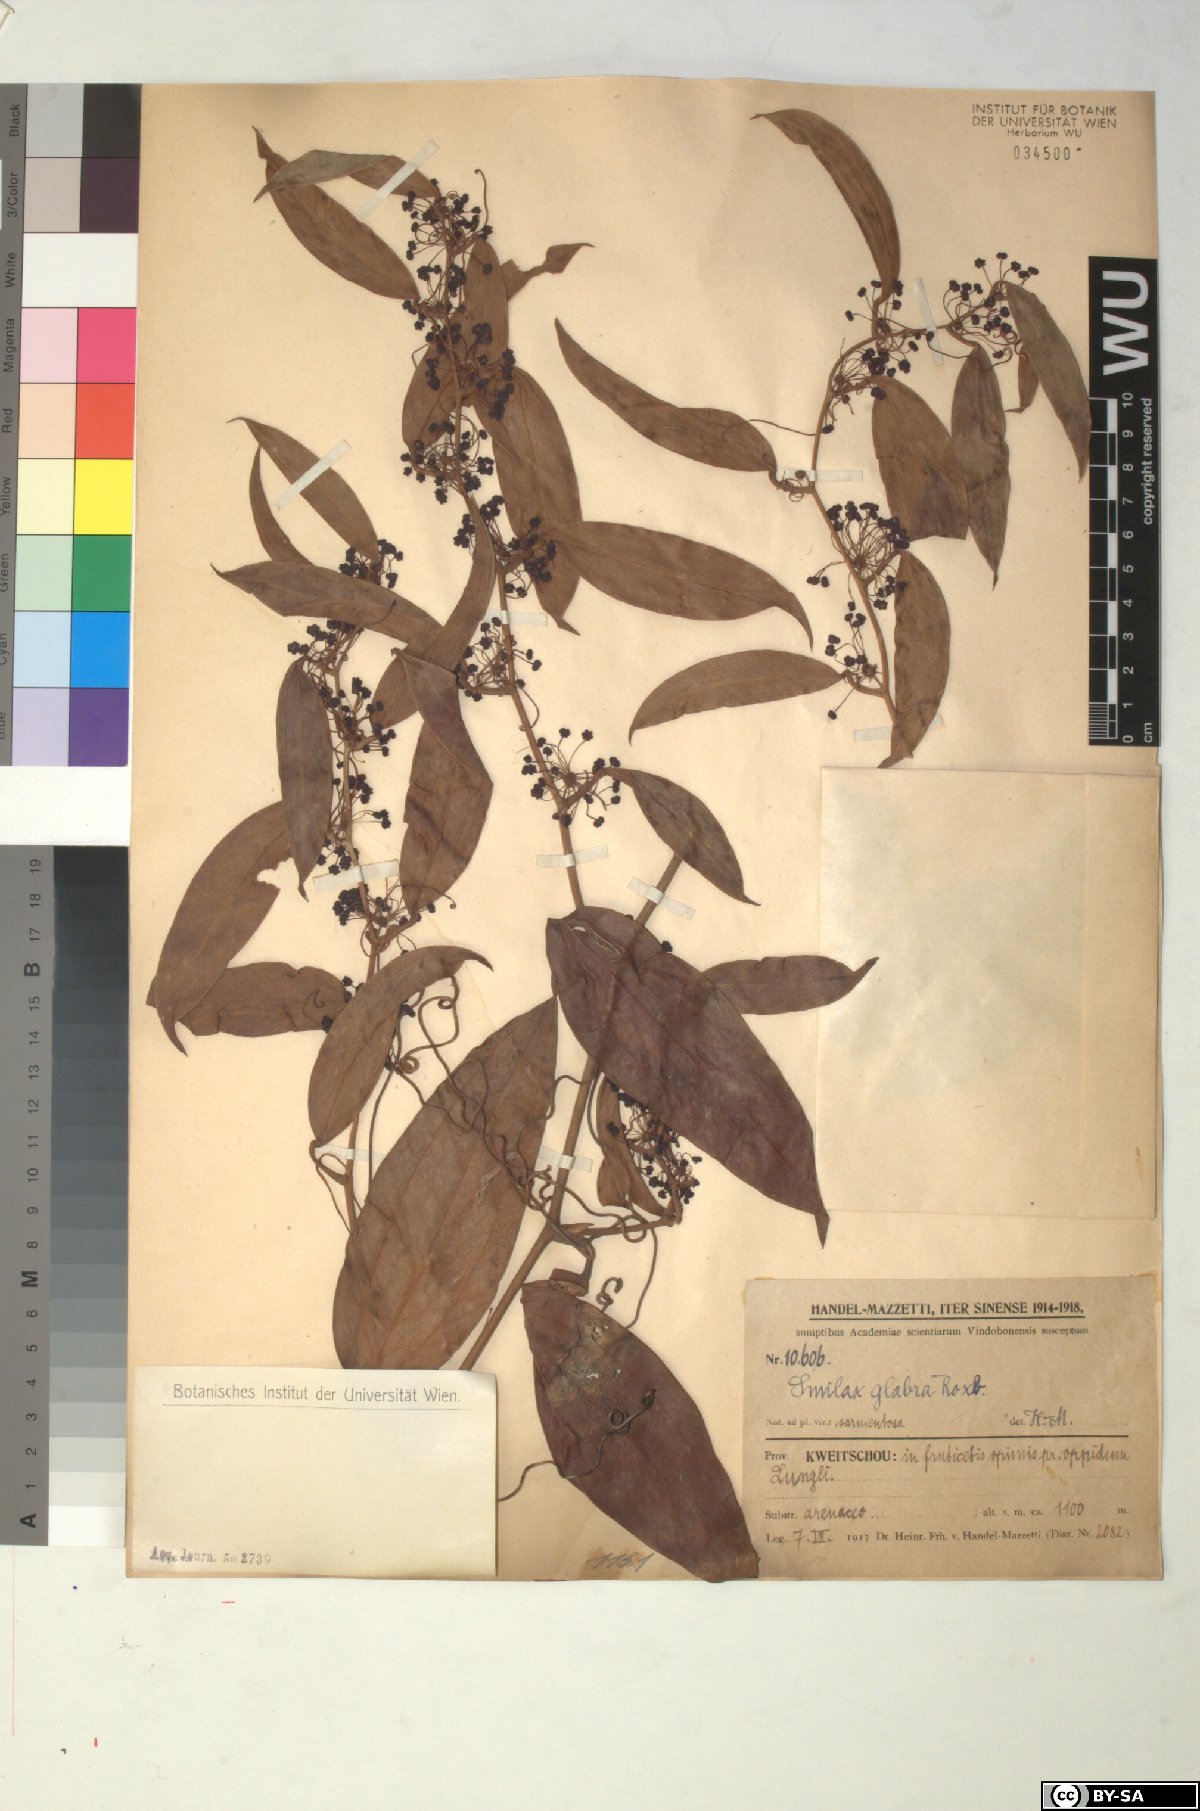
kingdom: Plantae
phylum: Tracheophyta
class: Liliopsida
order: Liliales
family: Smilacaceae
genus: Smilax
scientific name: Smilax glabra
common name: Chinese smilax
